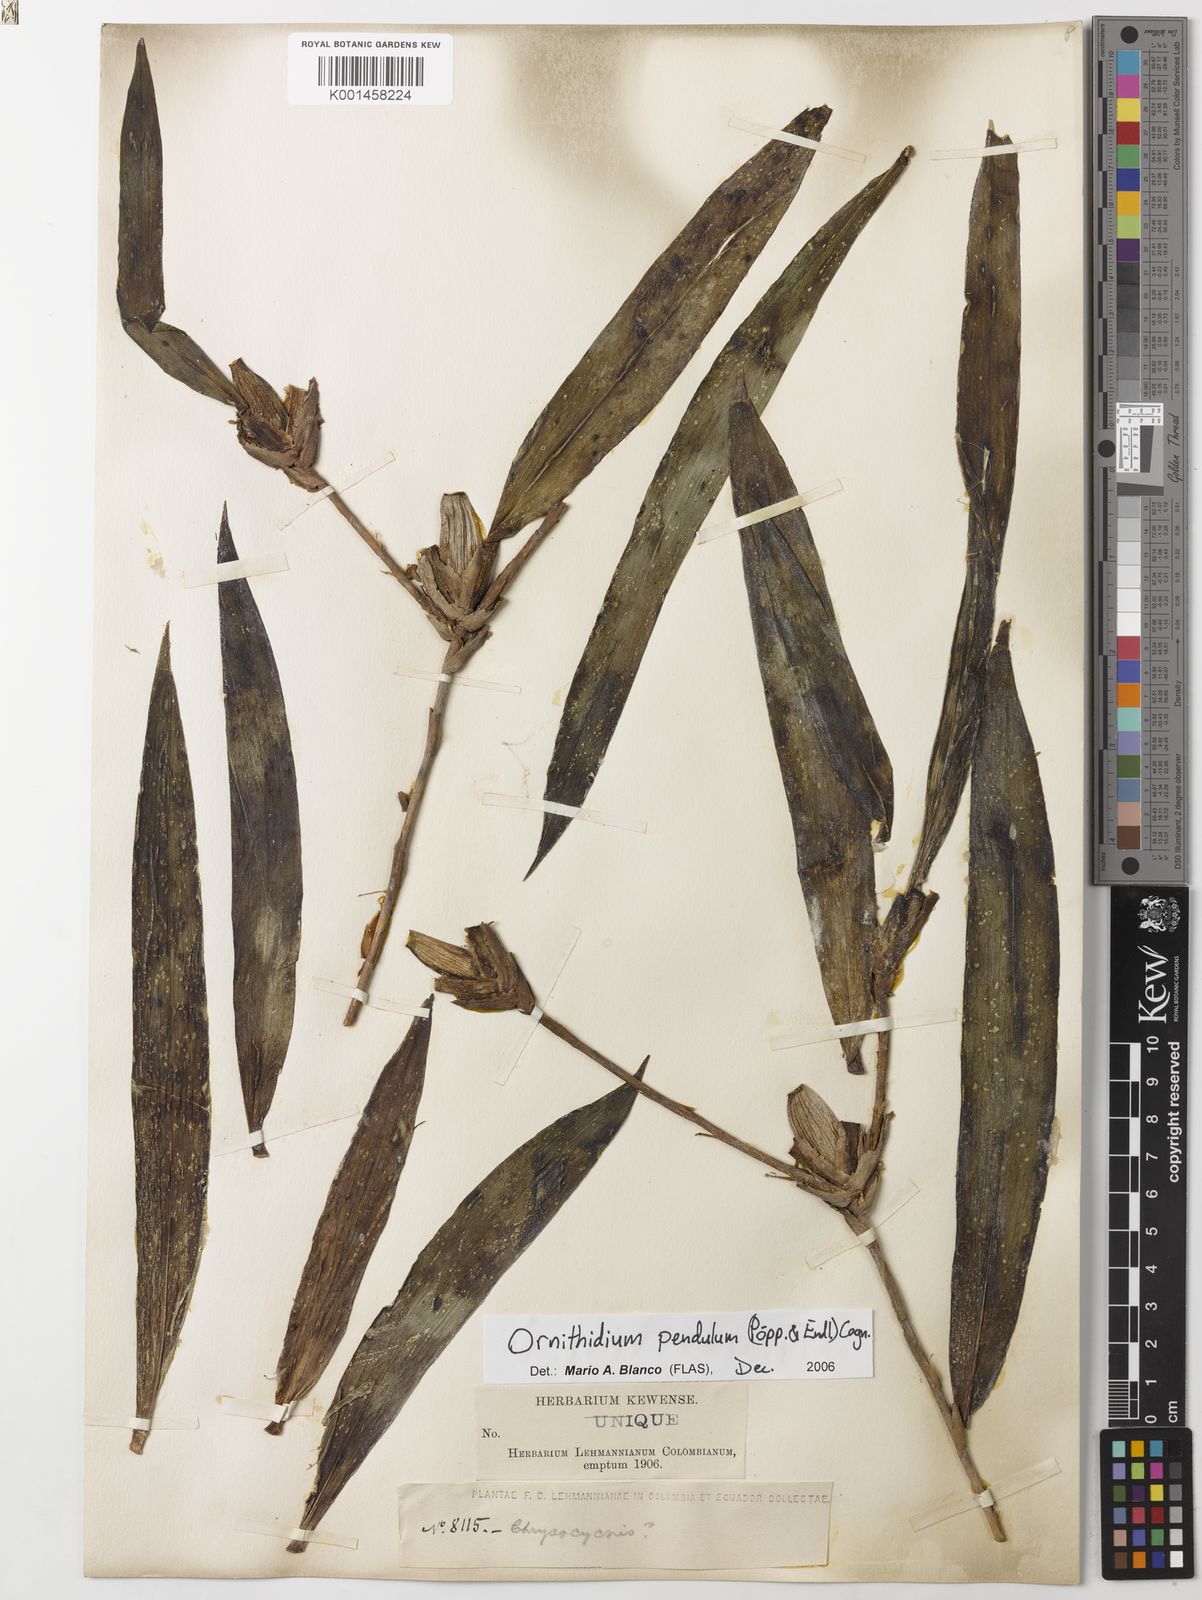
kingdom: Plantae
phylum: Tracheophyta
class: Liliopsida
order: Asparagales
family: Orchidaceae
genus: Maxillaria
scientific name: Maxillaria pendula
